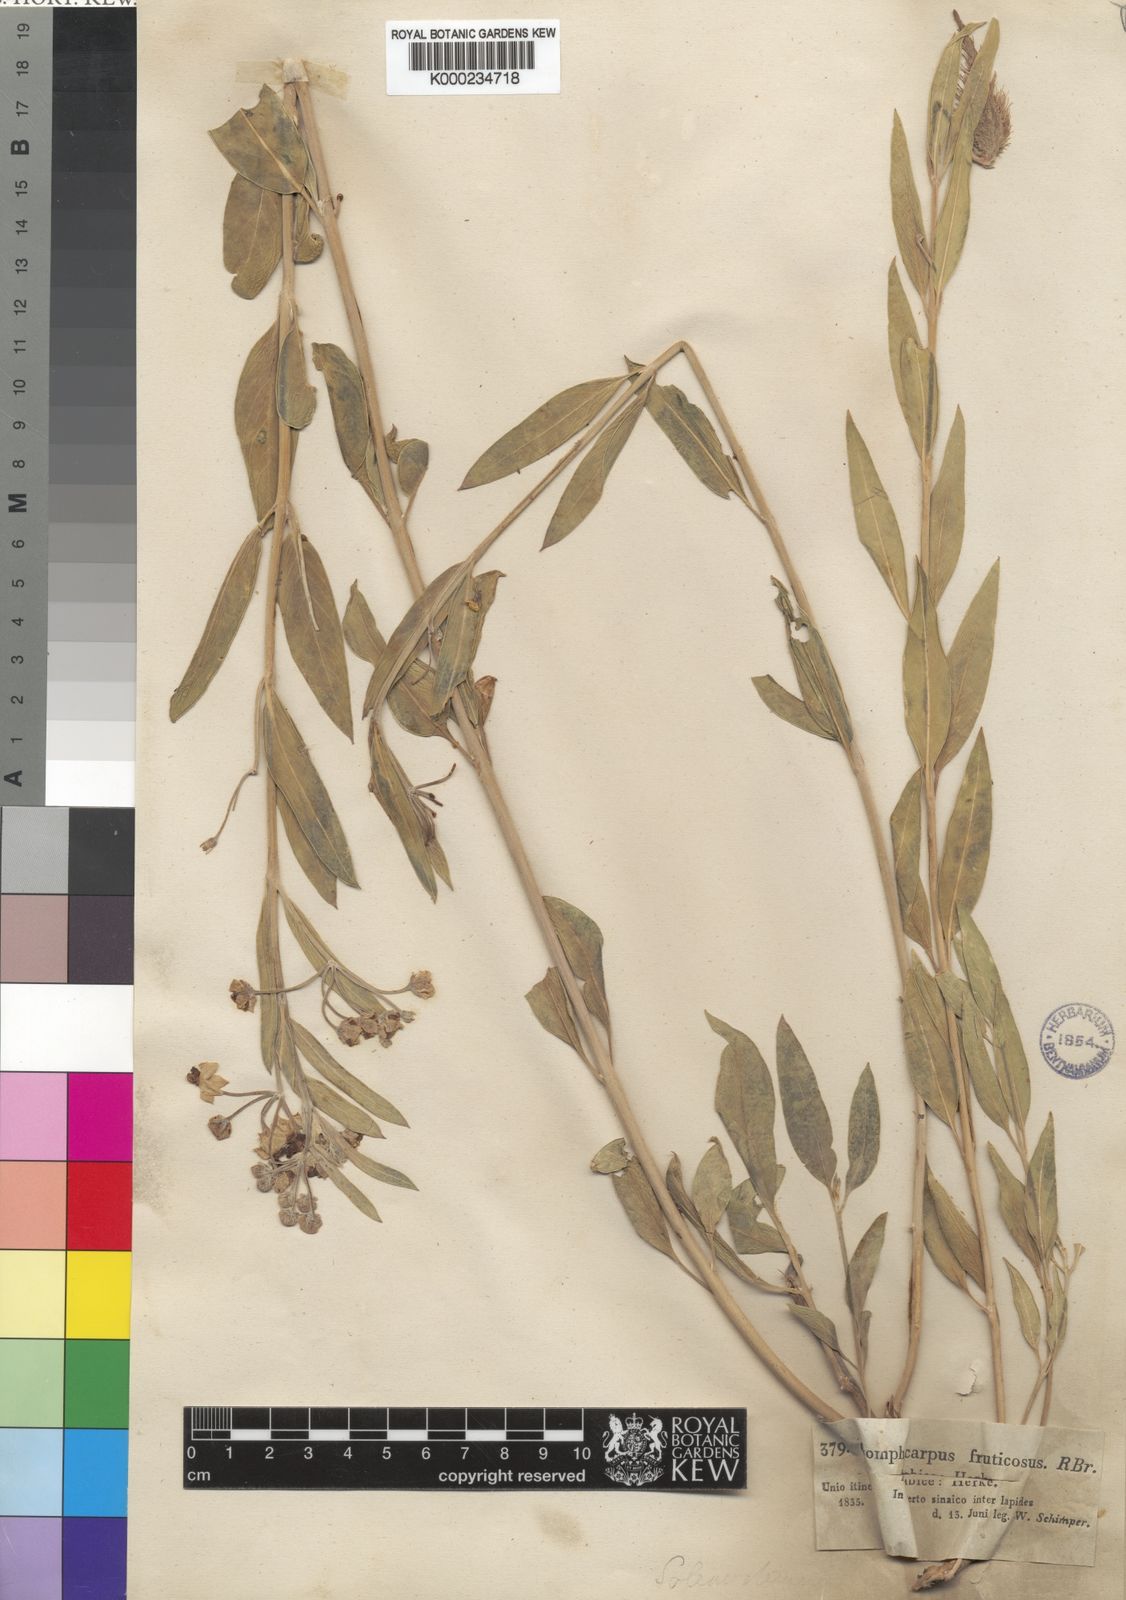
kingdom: Plantae
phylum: Tracheophyta
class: Magnoliopsida
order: Gentianales
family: Apocynaceae
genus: Gomphocarpus
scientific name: Gomphocarpus sinaicus
